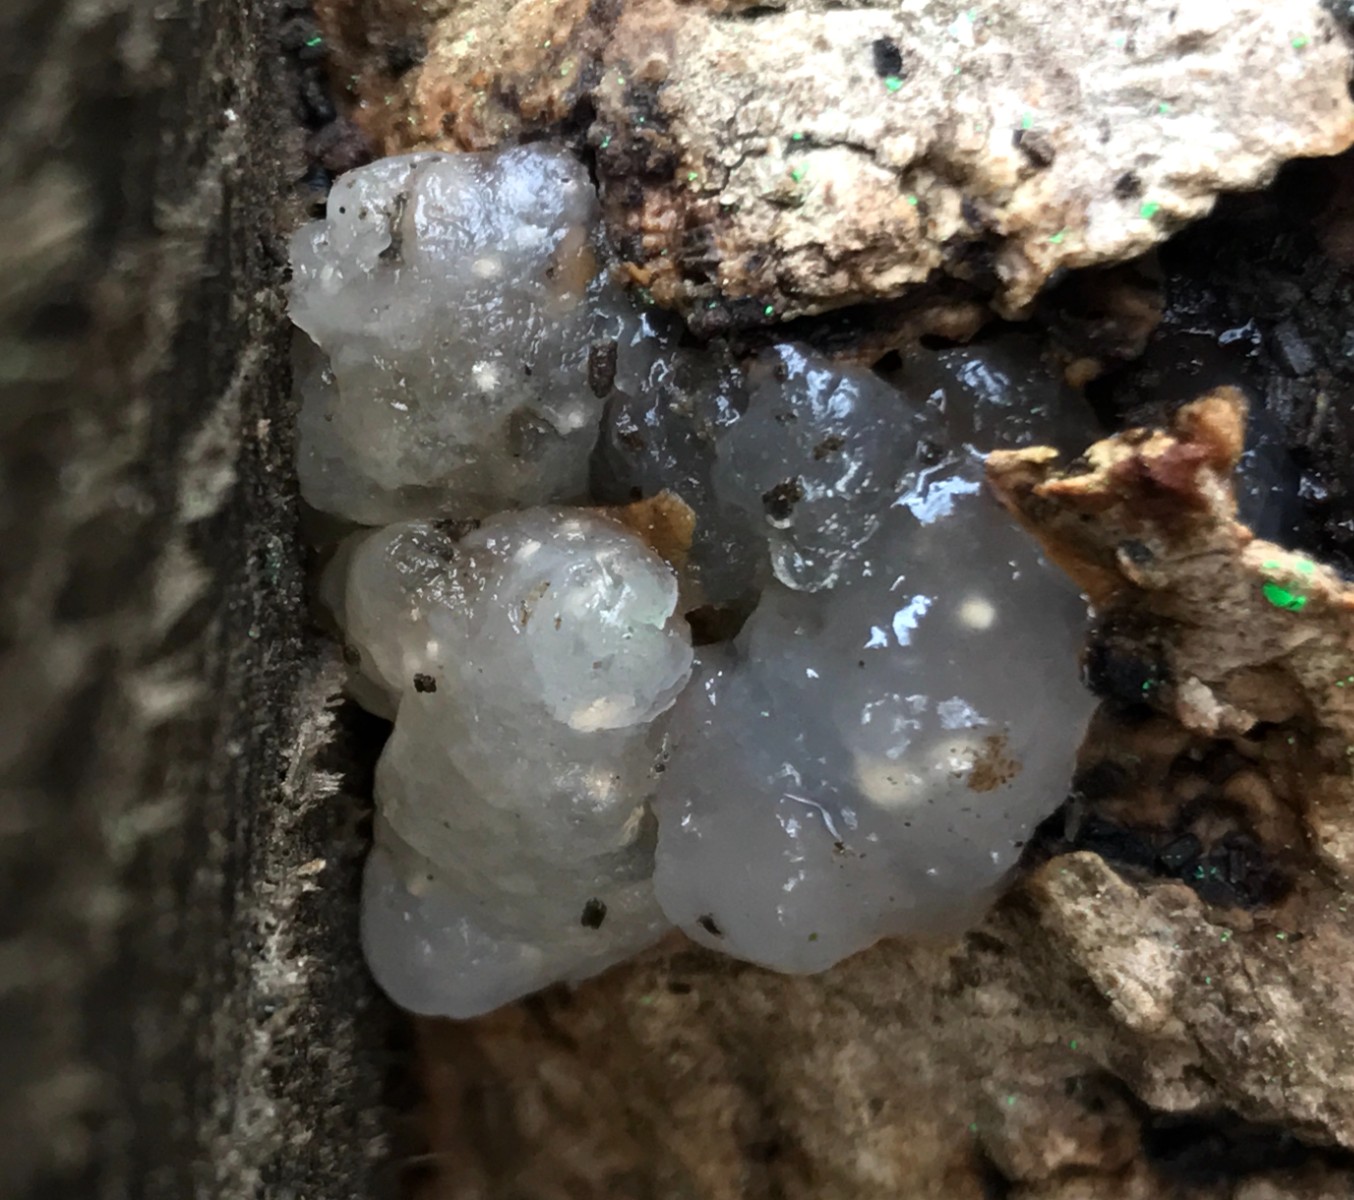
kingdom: Fungi
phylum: Basidiomycota
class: Agaricomycetes
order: Auriculariales
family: Hyaloriaceae
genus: Myxarium
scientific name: Myxarium nucleatum
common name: klar bævretop
